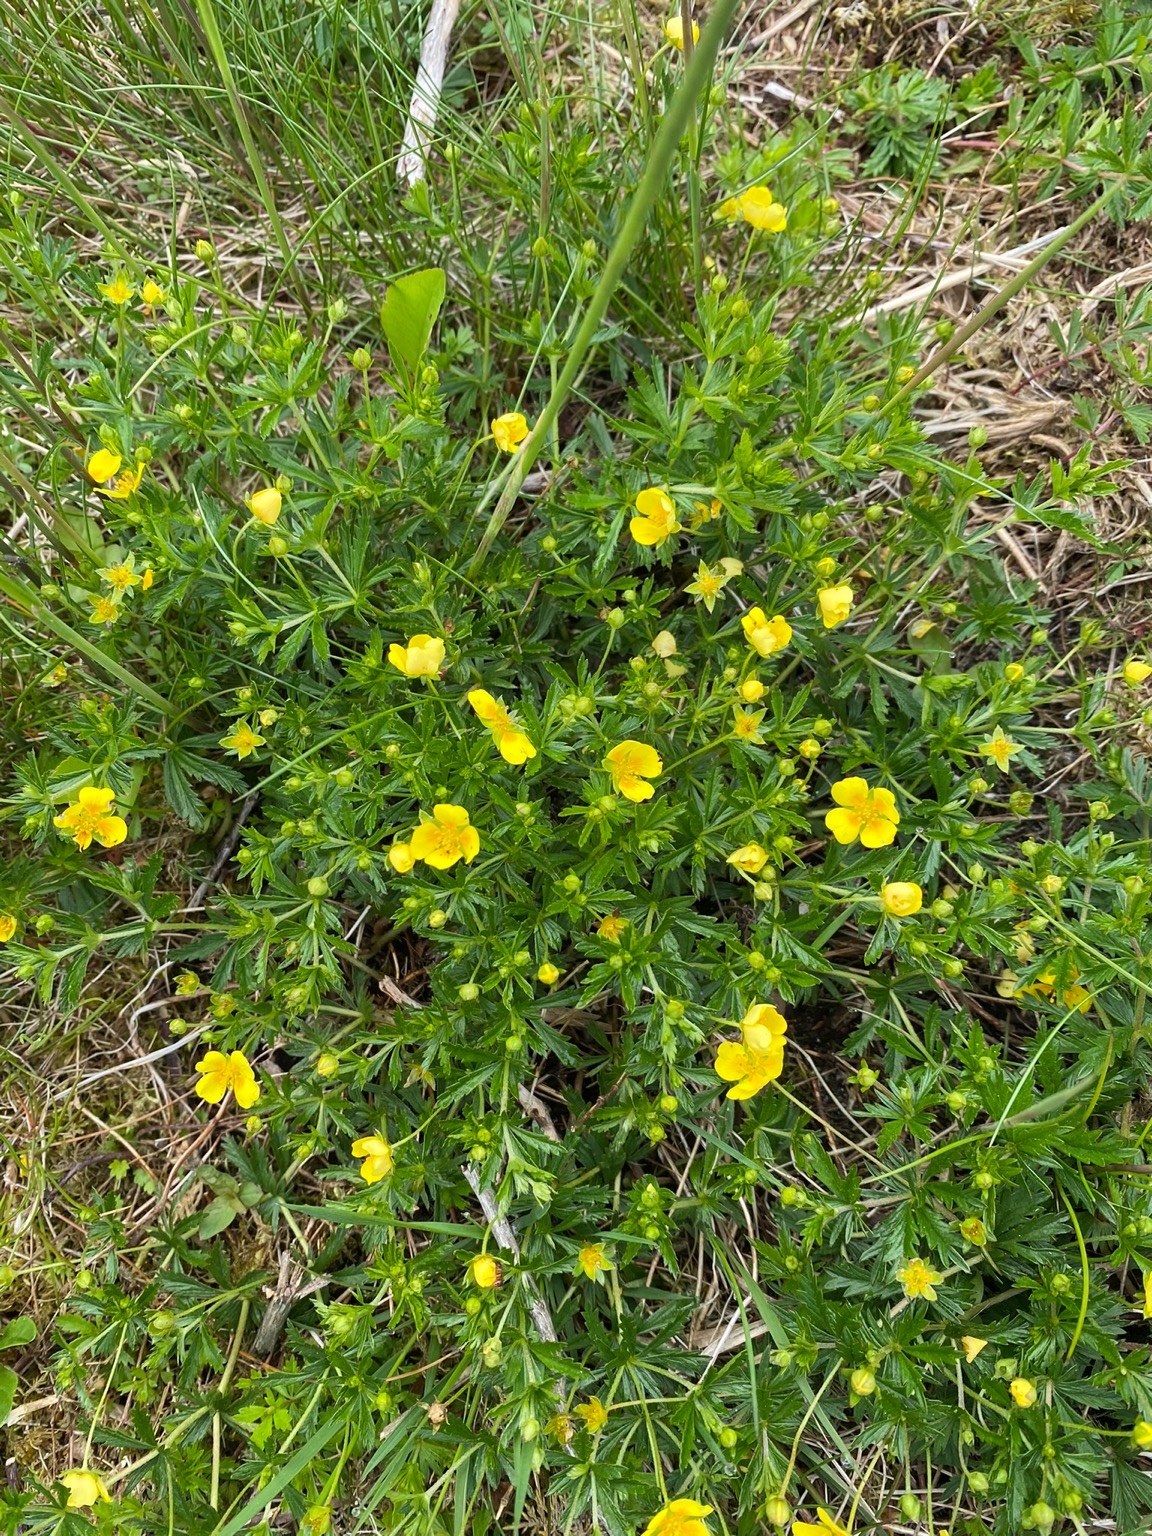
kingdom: Plantae
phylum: Tracheophyta
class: Magnoliopsida
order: Rosales
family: Rosaceae
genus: Potentilla
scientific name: Potentilla erecta
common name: Tormentil
